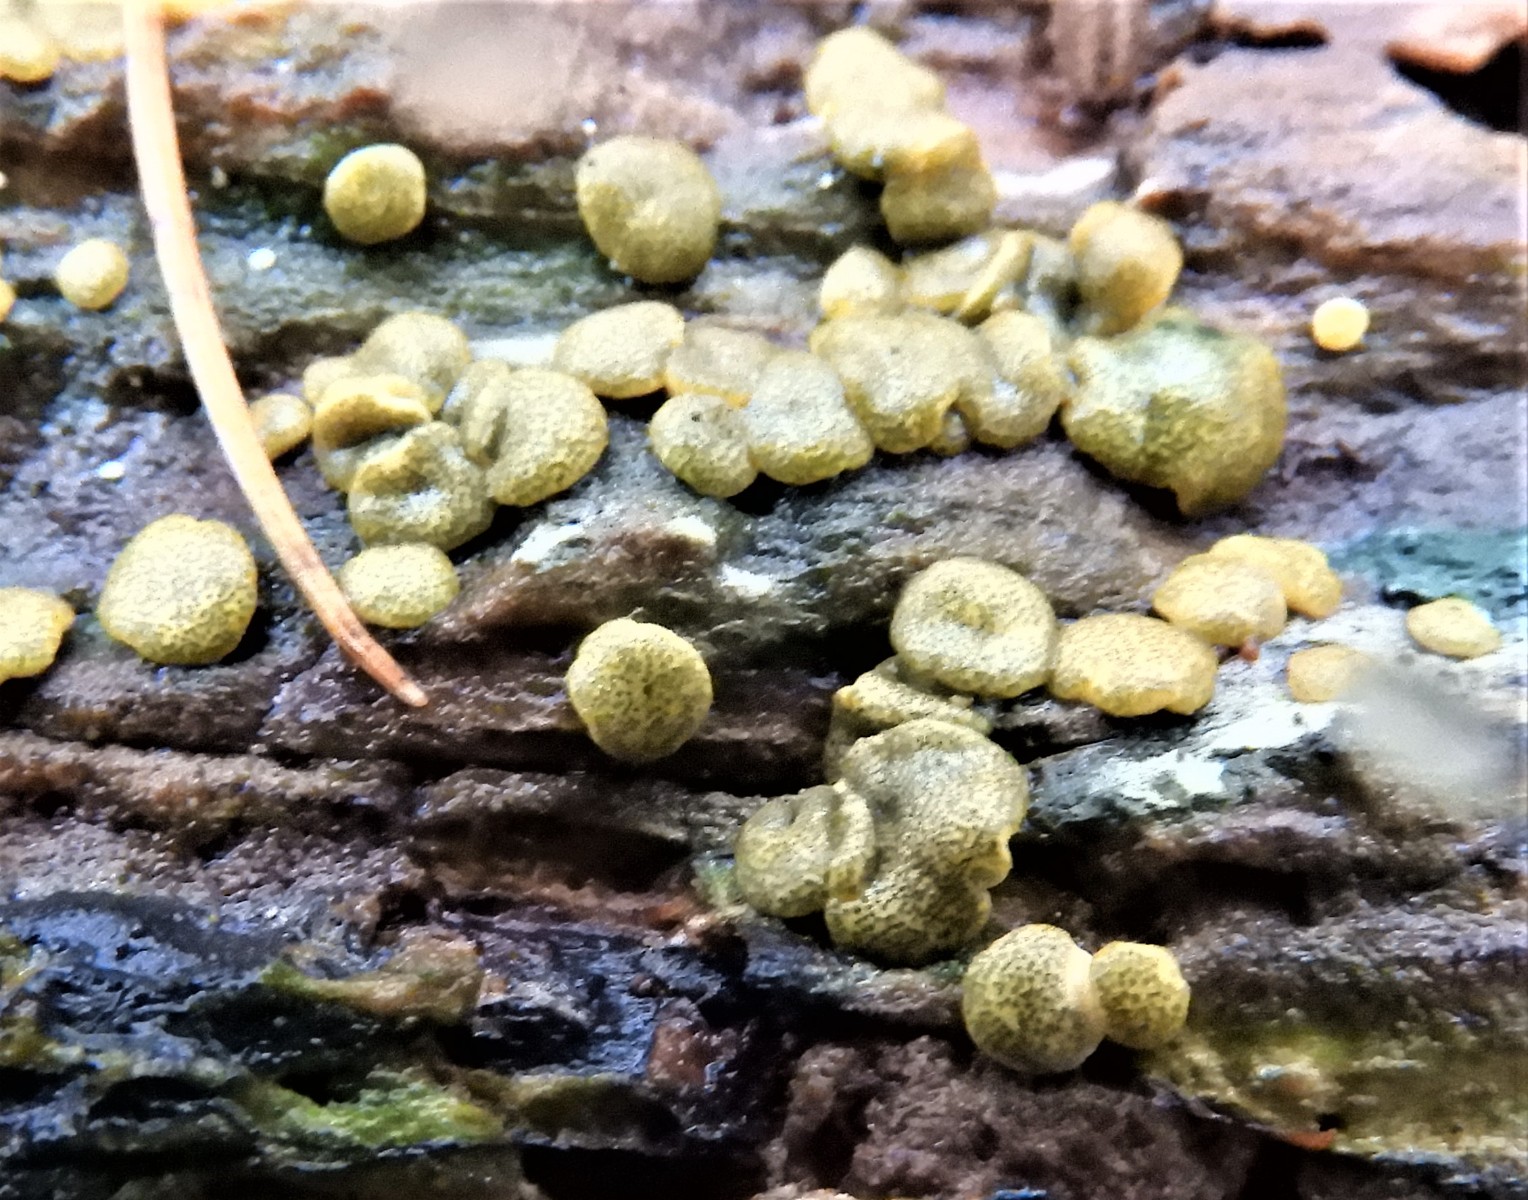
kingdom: Fungi
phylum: Ascomycota
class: Sordariomycetes
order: Hypocreales
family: Hypocreaceae
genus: Trichoderma
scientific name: Trichoderma aureoviride
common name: æggegul kødkerne
